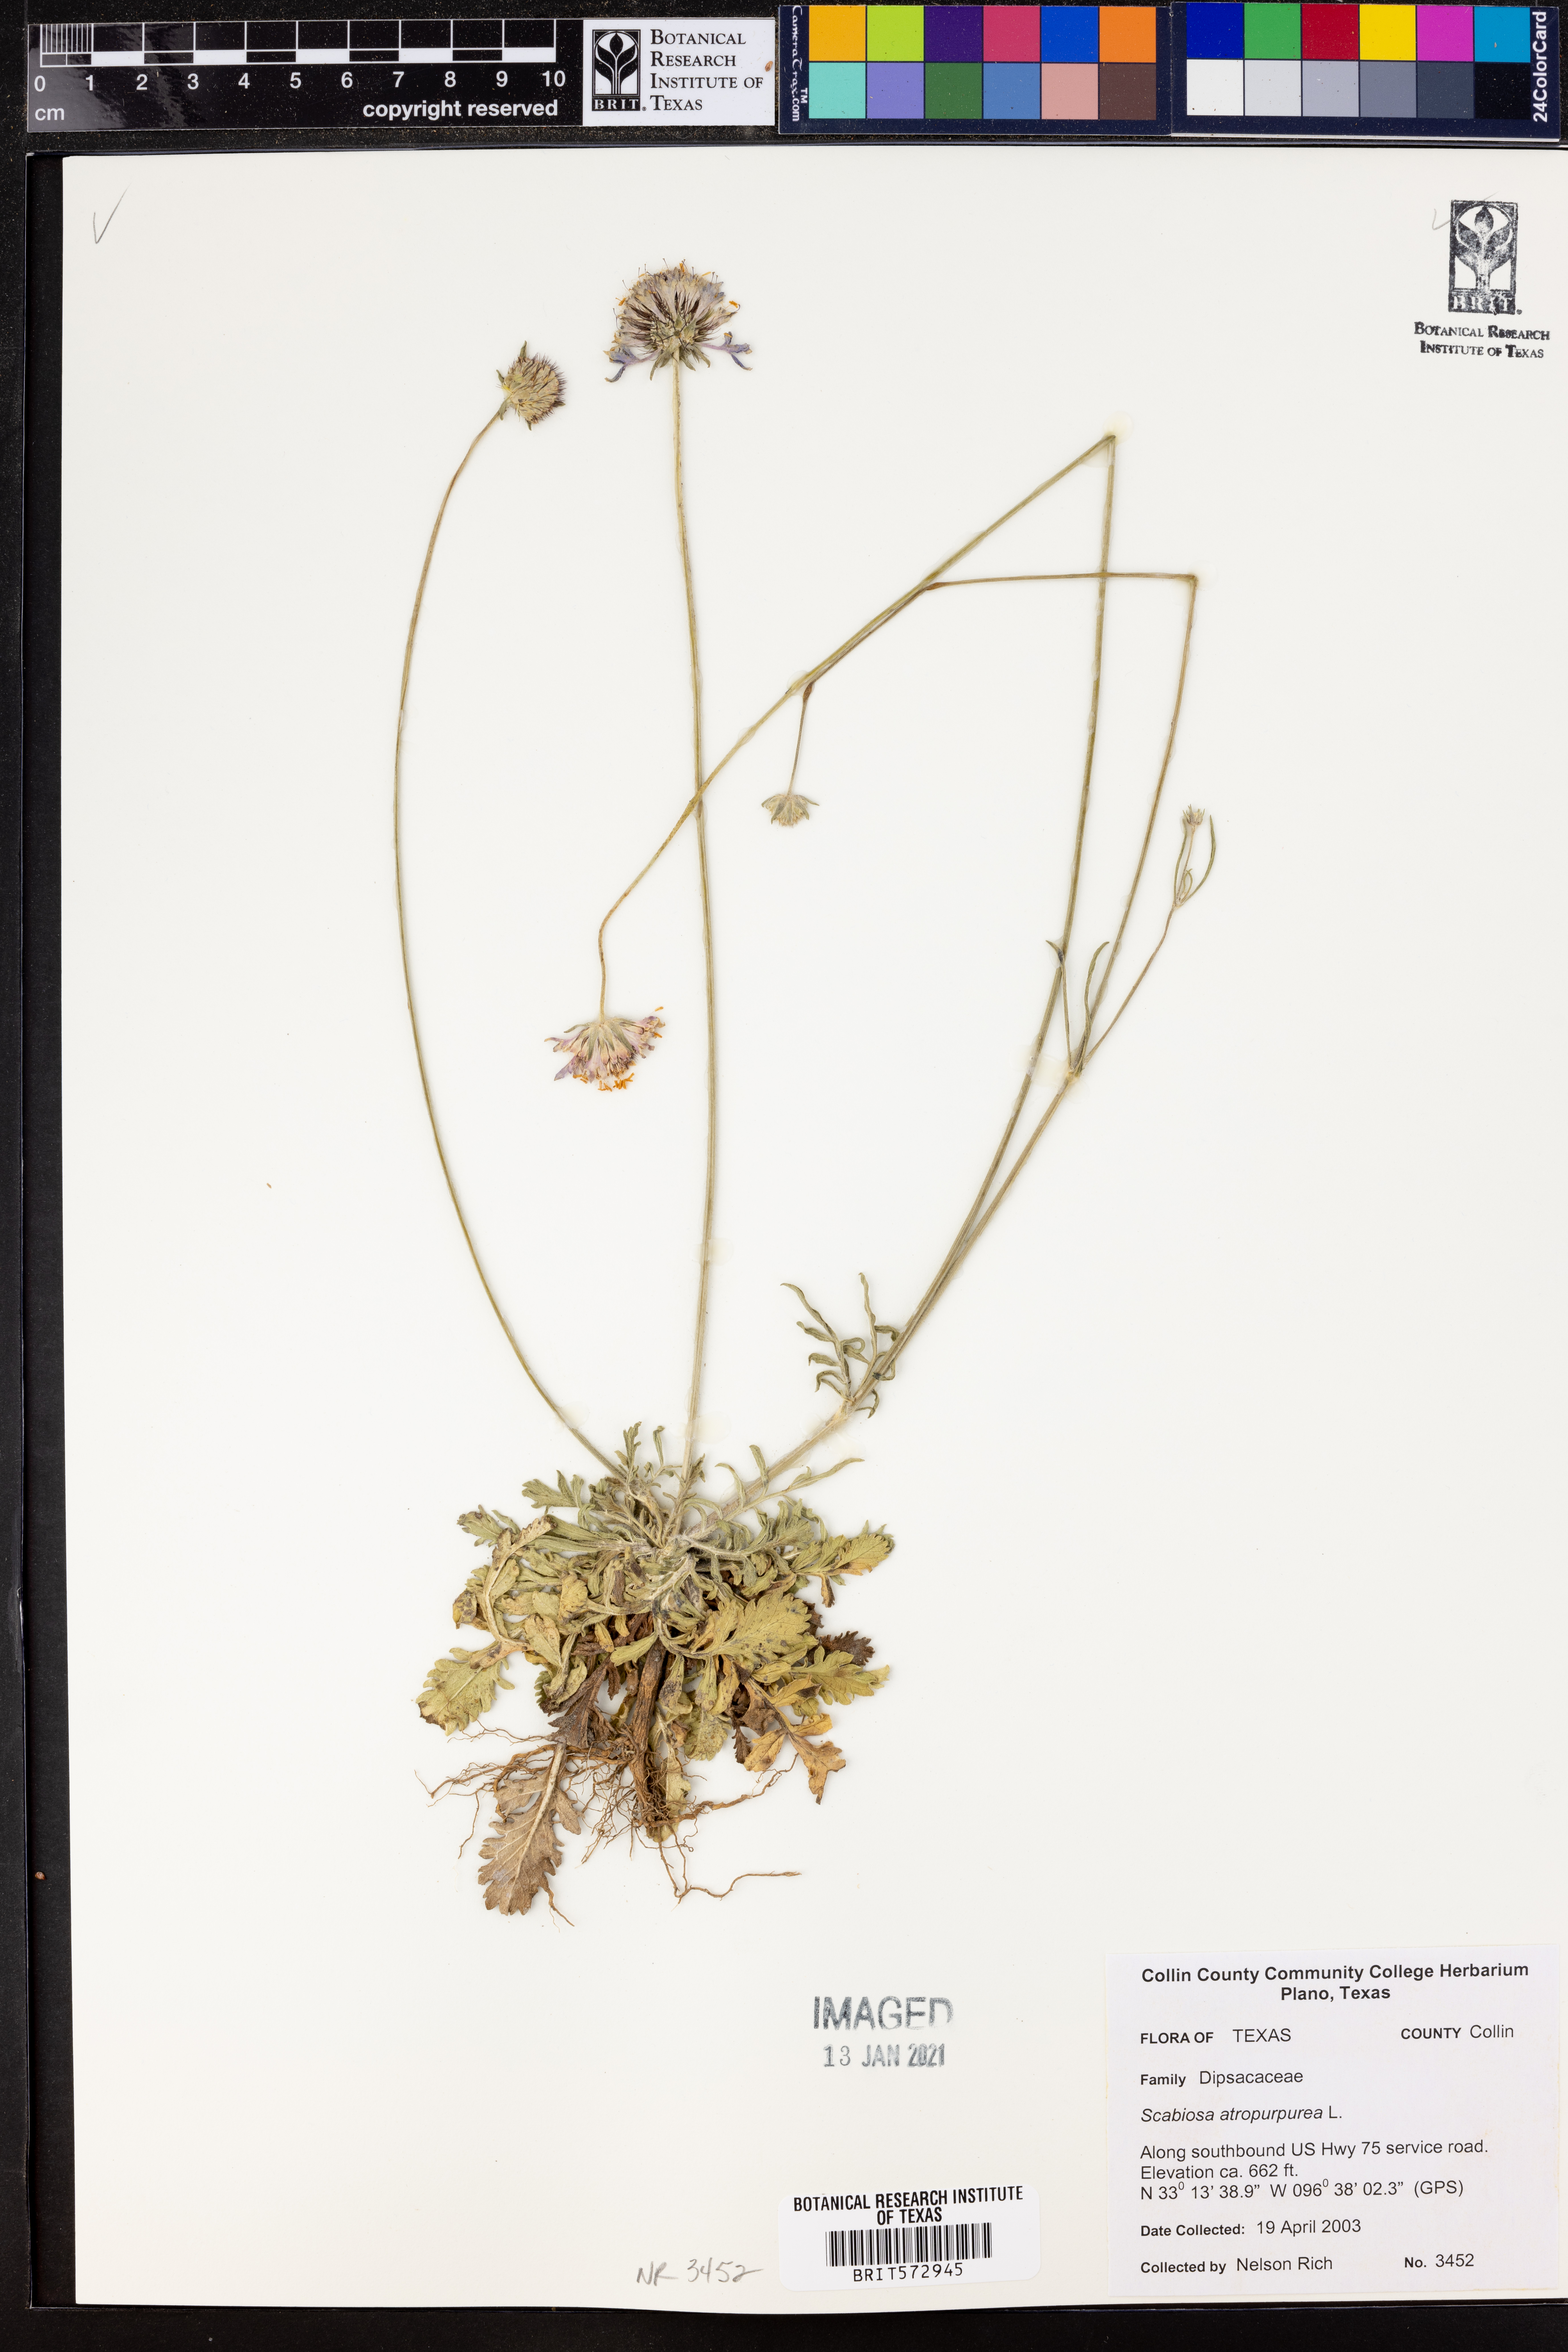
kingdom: Plantae
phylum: Tracheophyta
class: Magnoliopsida
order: Dipsacales
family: Caprifoliaceae
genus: Sixalix
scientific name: Sixalix atropurpurea
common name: Sweet scabious
